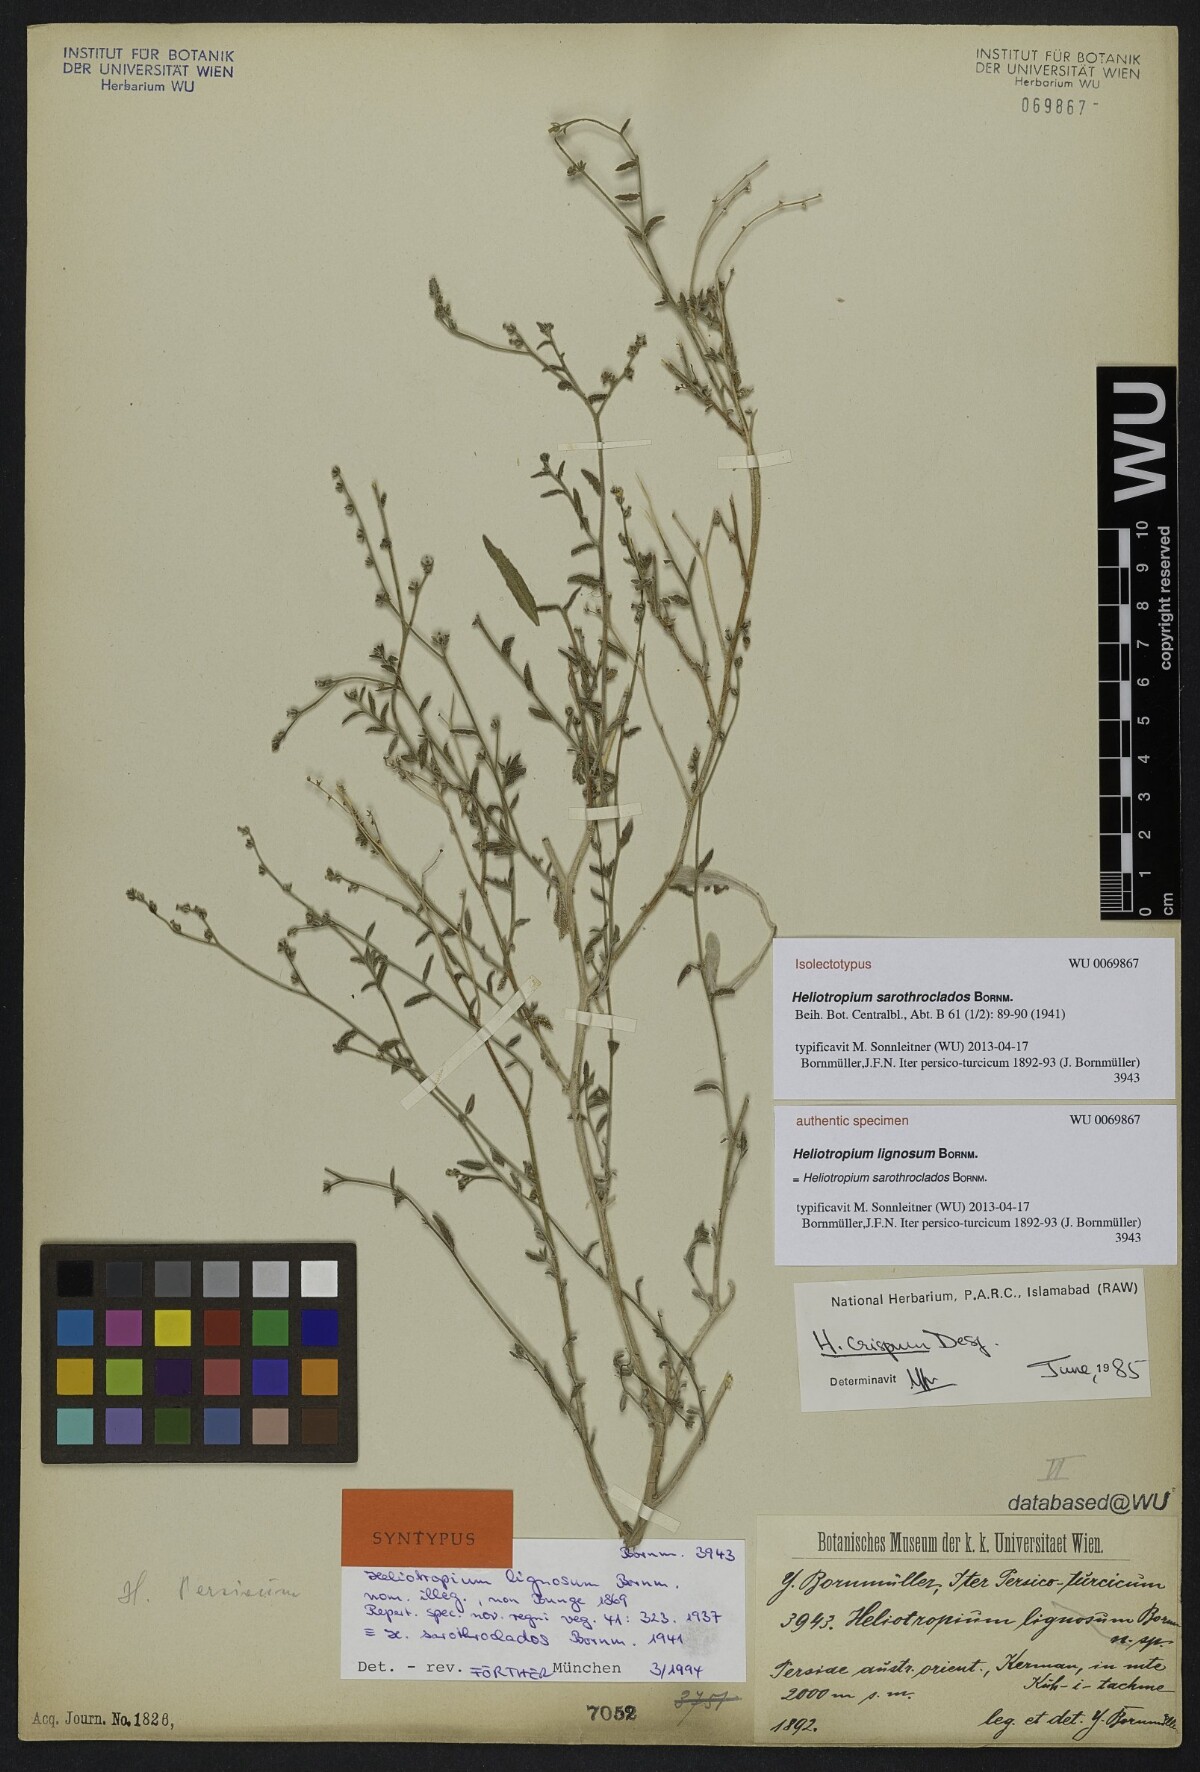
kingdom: Plantae
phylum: Tracheophyta
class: Magnoliopsida
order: Boraginales
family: Heliotropiaceae
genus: Heliotropium
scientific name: Heliotropium ramosissimum
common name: Wavy heliotrope
